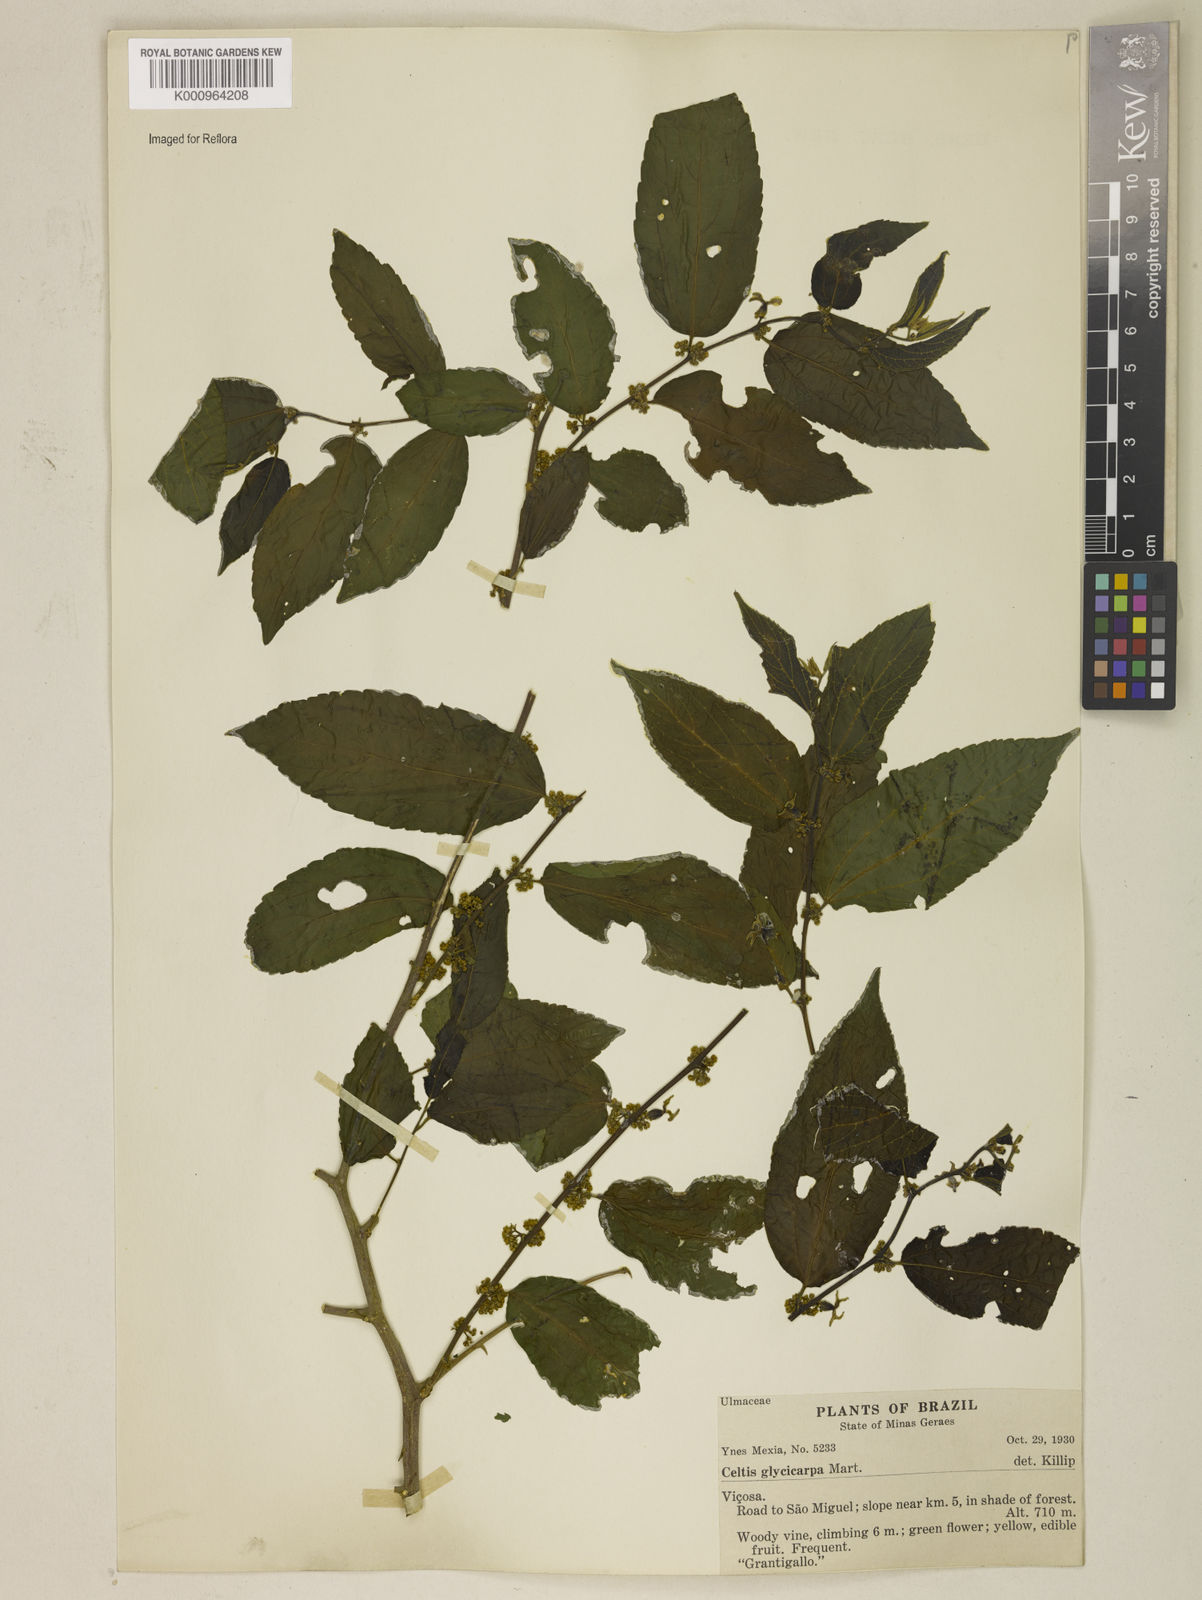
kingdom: Plantae
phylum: Tracheophyta
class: Magnoliopsida
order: Rosales
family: Cannabaceae
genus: Celtis
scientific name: Celtis iguanaea
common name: Iguana hackberry
